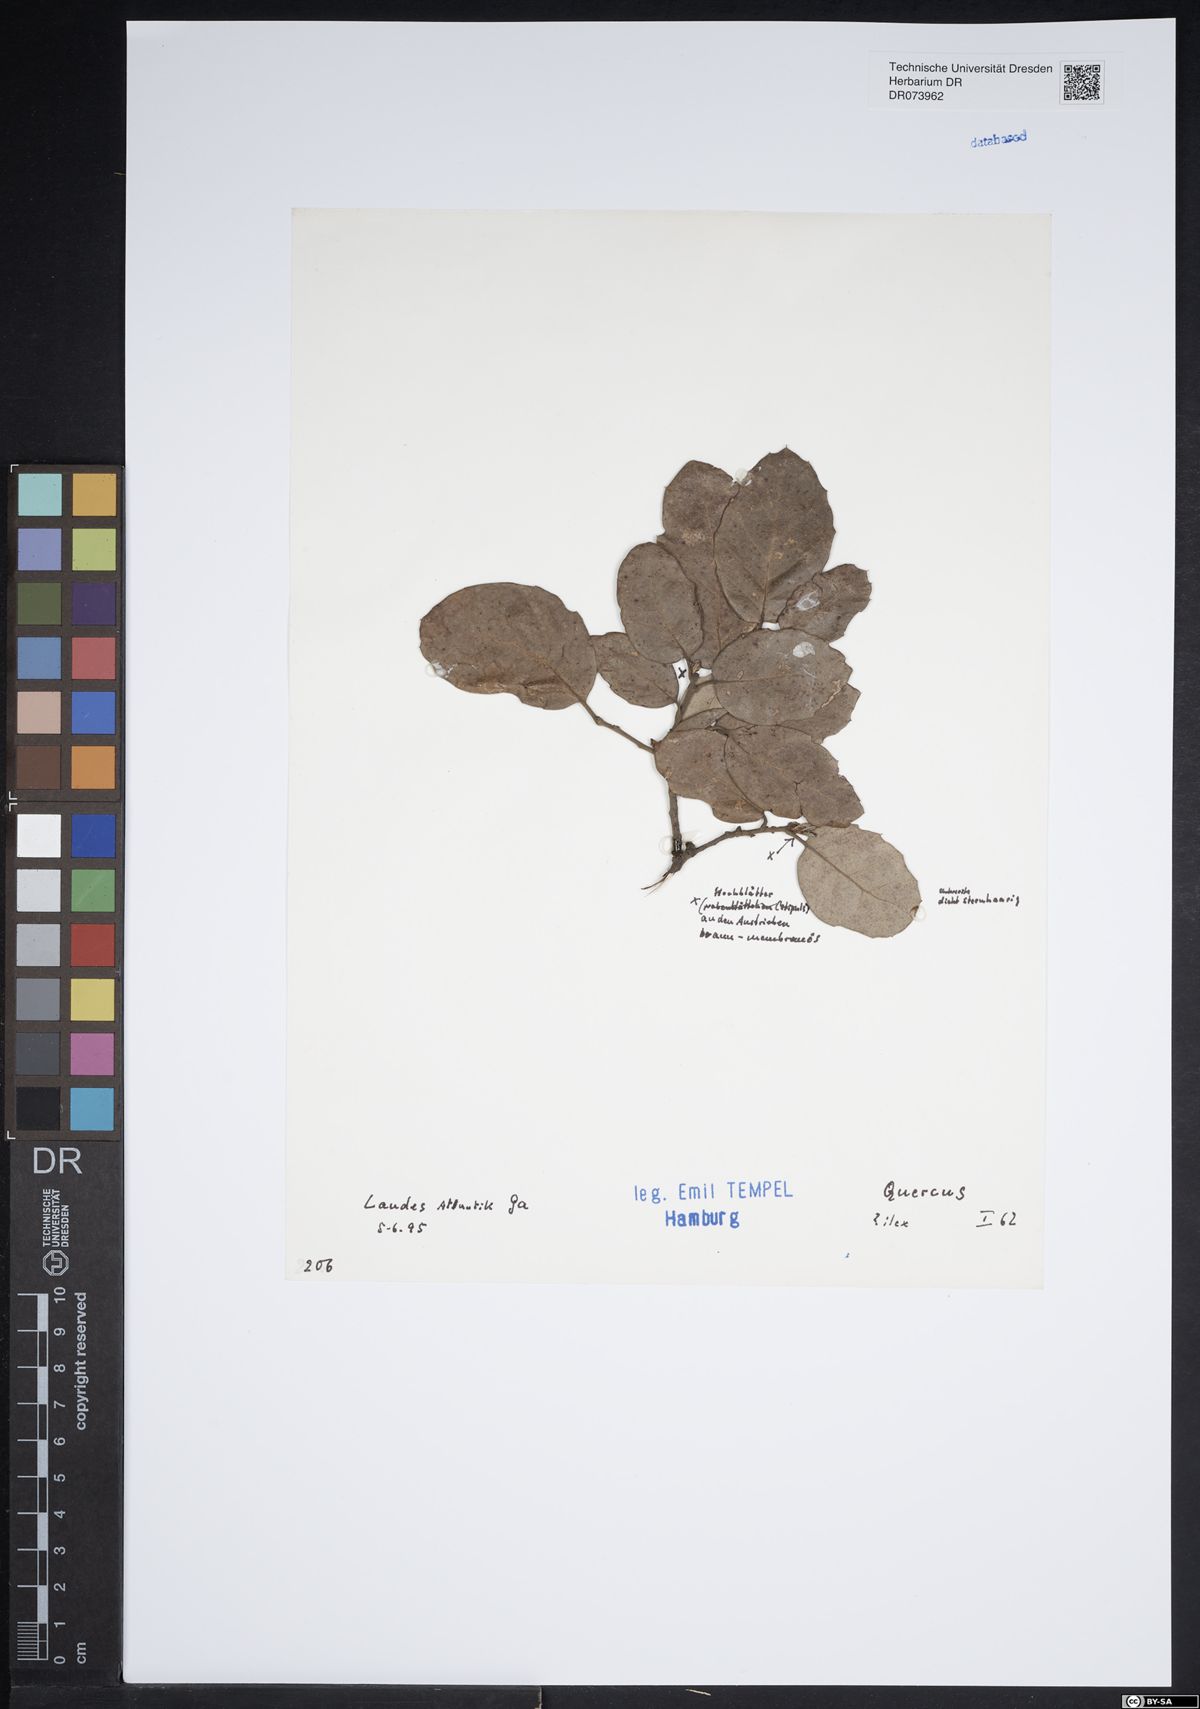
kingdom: Plantae
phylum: Tracheophyta
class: Magnoliopsida
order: Fagales
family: Fagaceae
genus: Quercus
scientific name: Quercus ilex
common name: Evergreen oak
